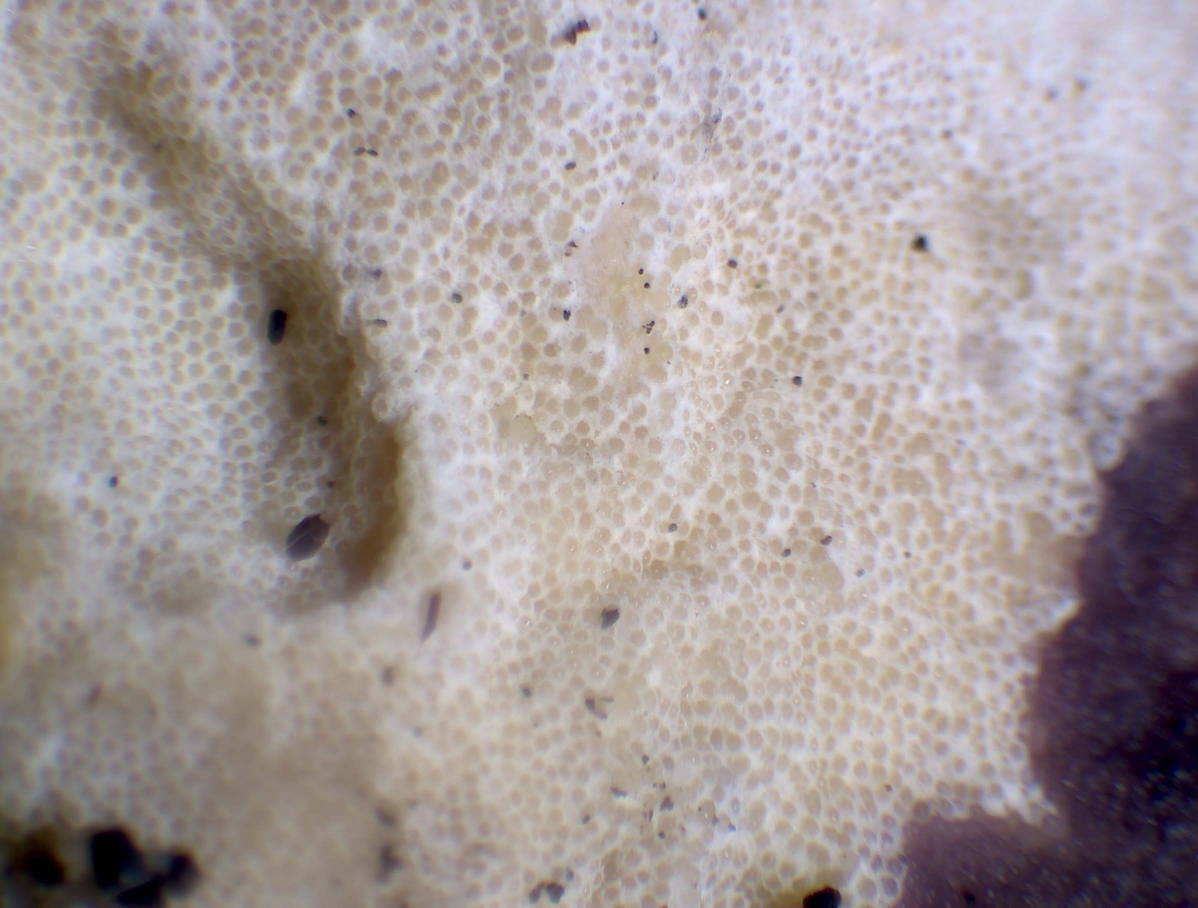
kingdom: Fungi
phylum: Ascomycota
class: Sordariomycetes
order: Hypocreales
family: Hypocreaceae
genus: Protocrea
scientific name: Protocrea pallida
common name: bleg kødkerne
